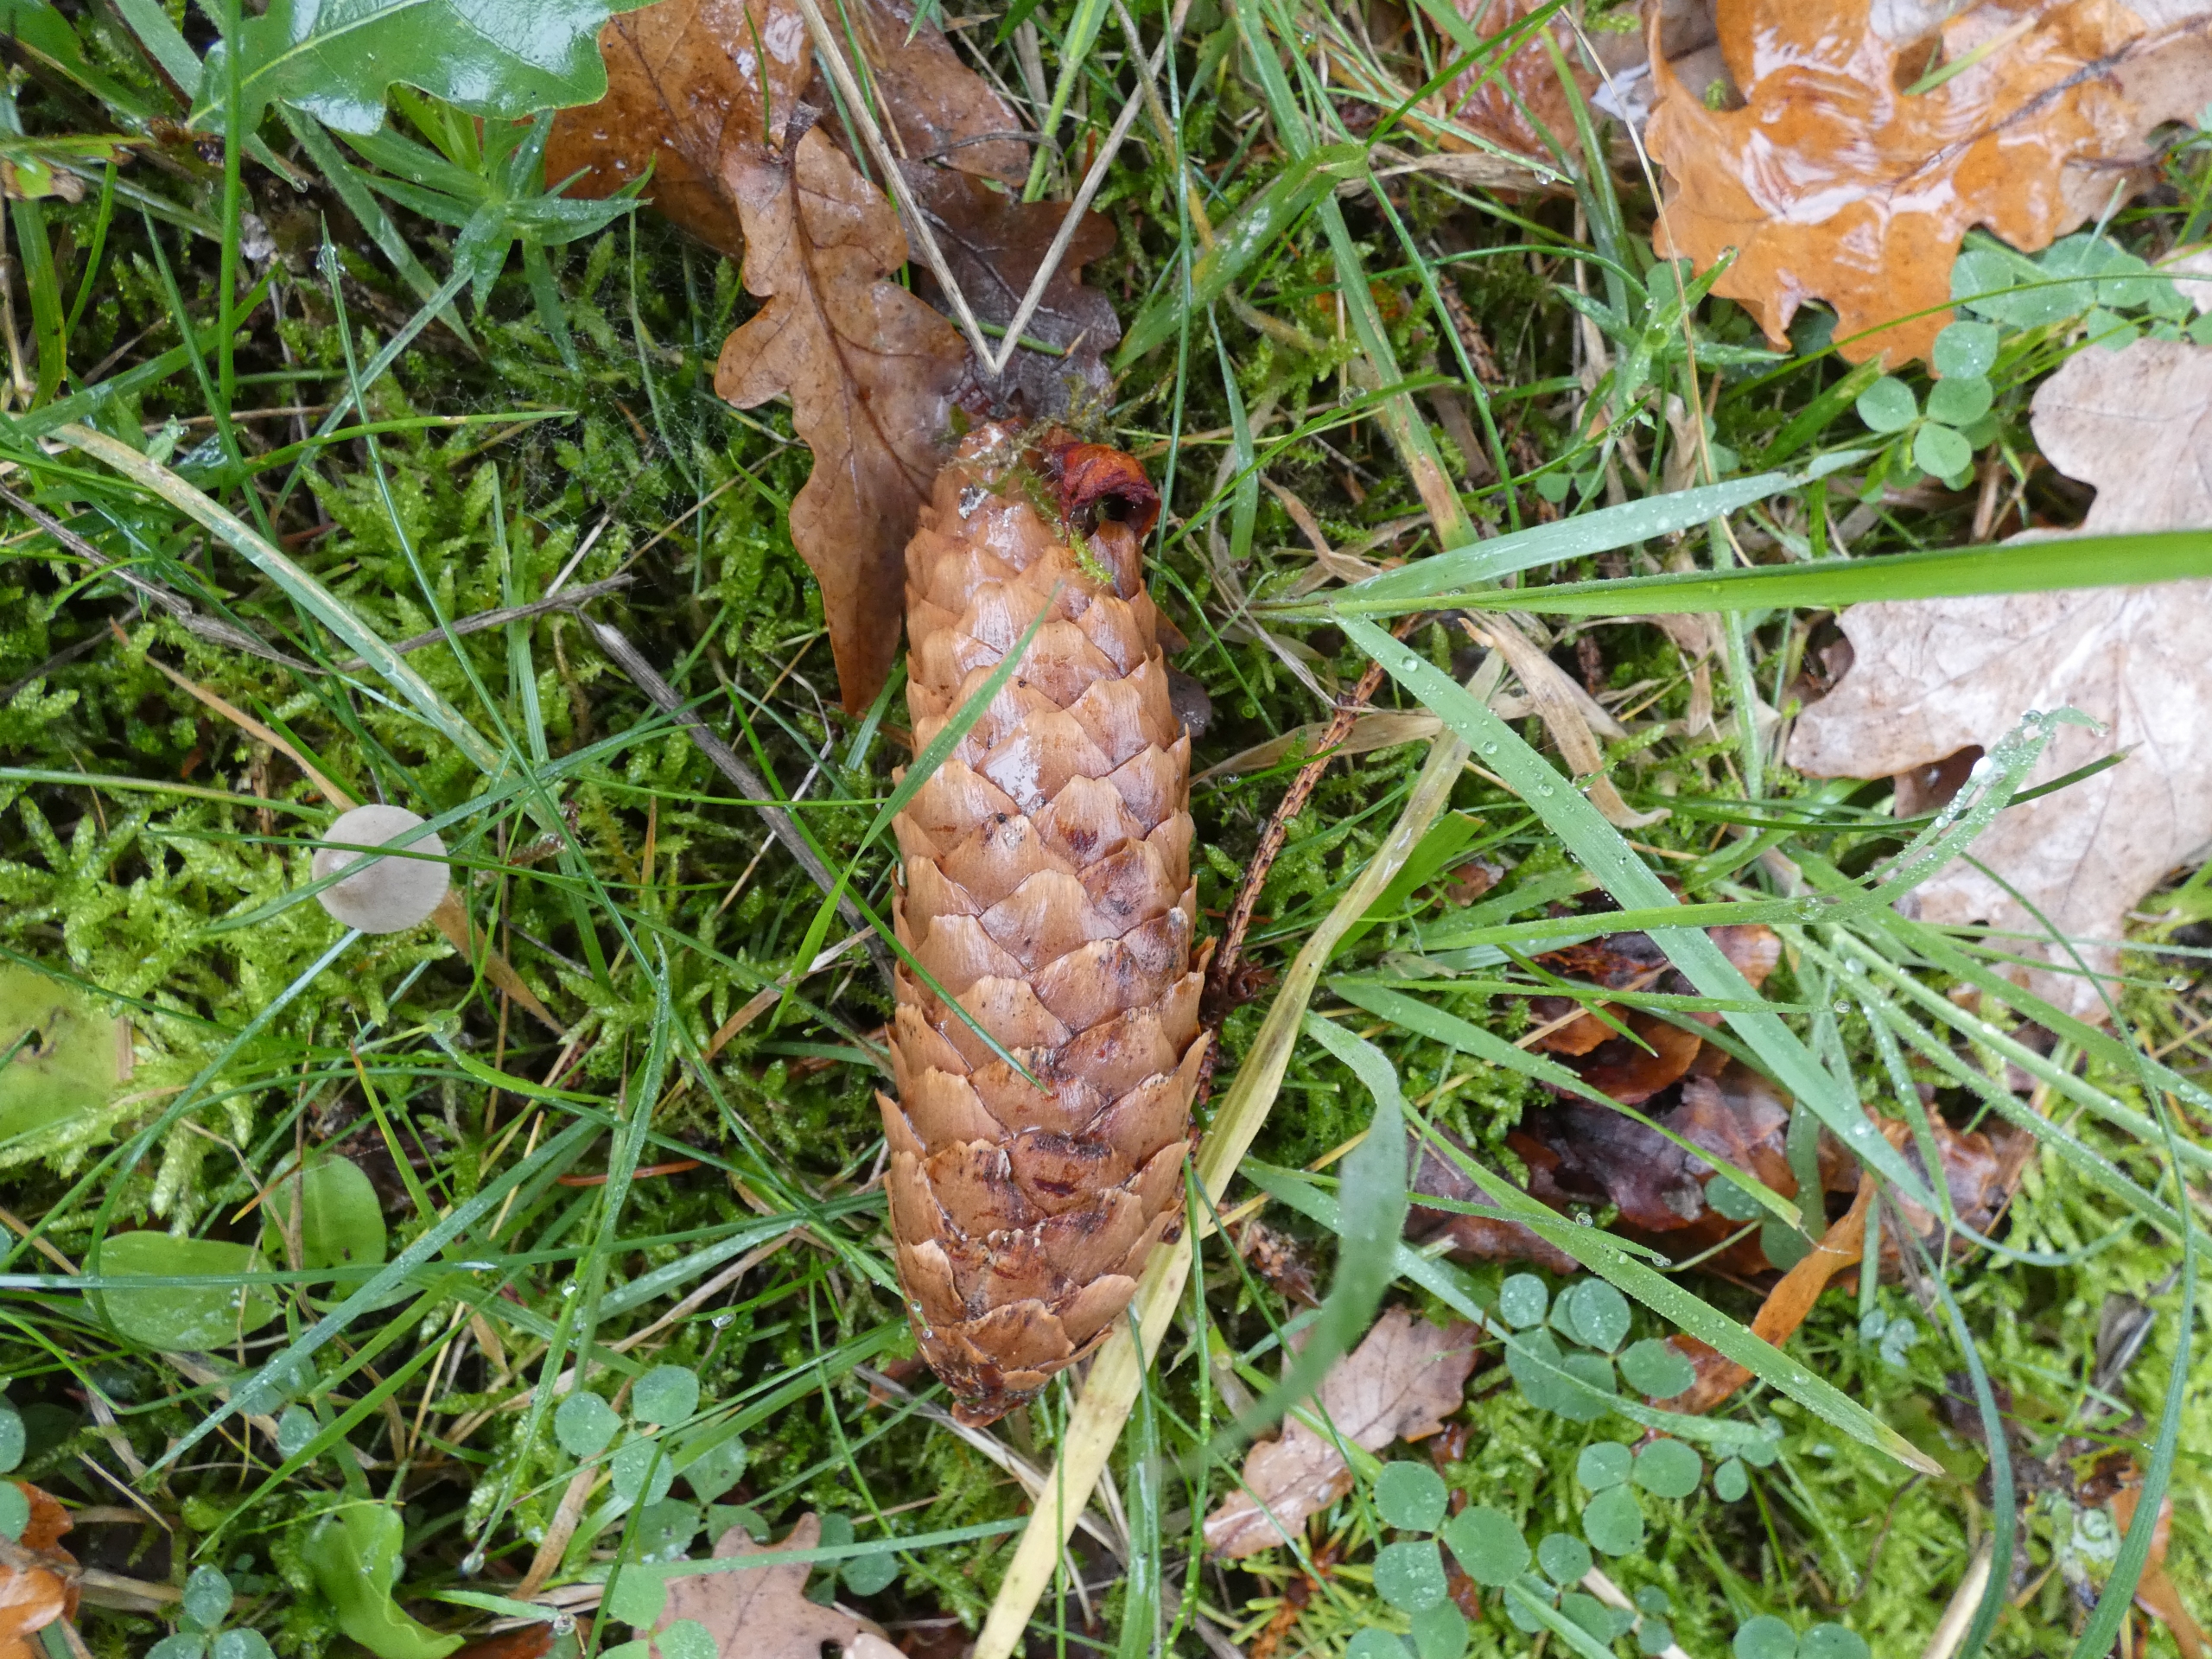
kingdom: Plantae
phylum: Tracheophyta
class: Pinopsida
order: Pinales
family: Pinaceae
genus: Picea
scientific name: Picea abies
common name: Rød-gran
